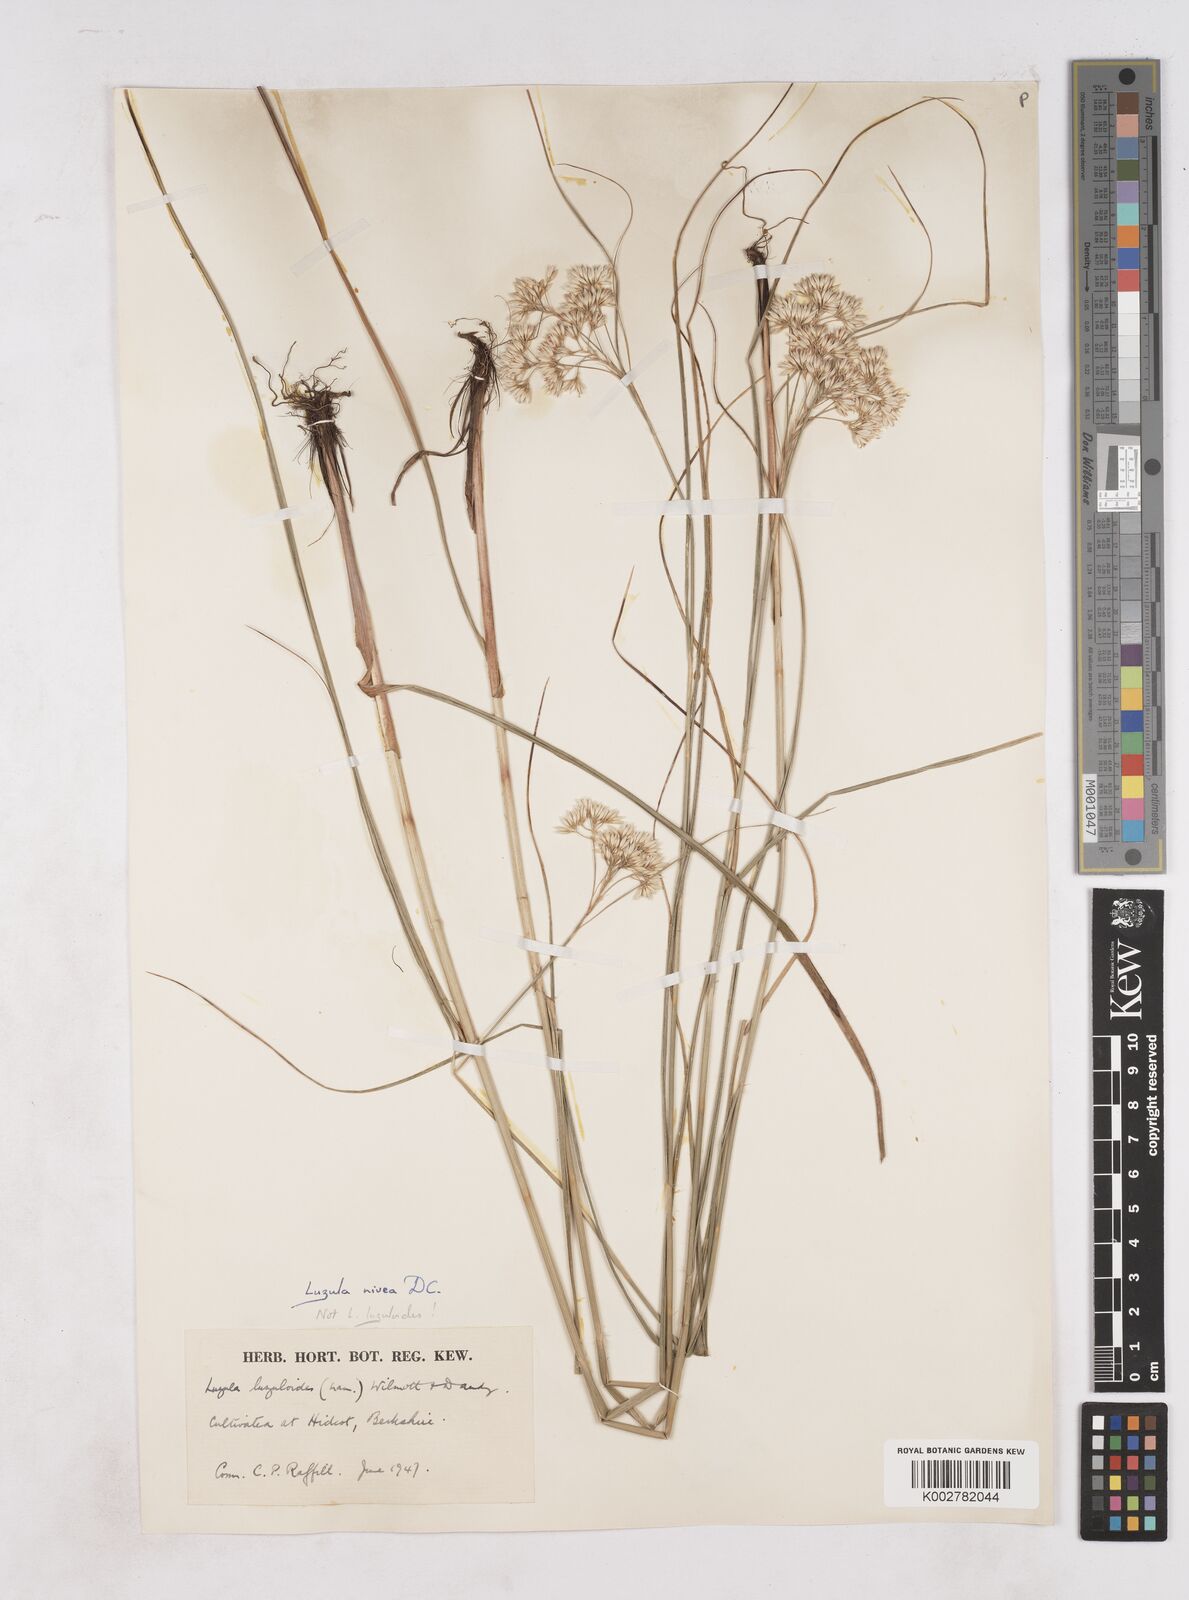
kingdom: Plantae
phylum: Tracheophyta
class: Liliopsida
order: Poales
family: Juncaceae
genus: Luzula
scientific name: Luzula nivea
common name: Snow-white wood-rush
